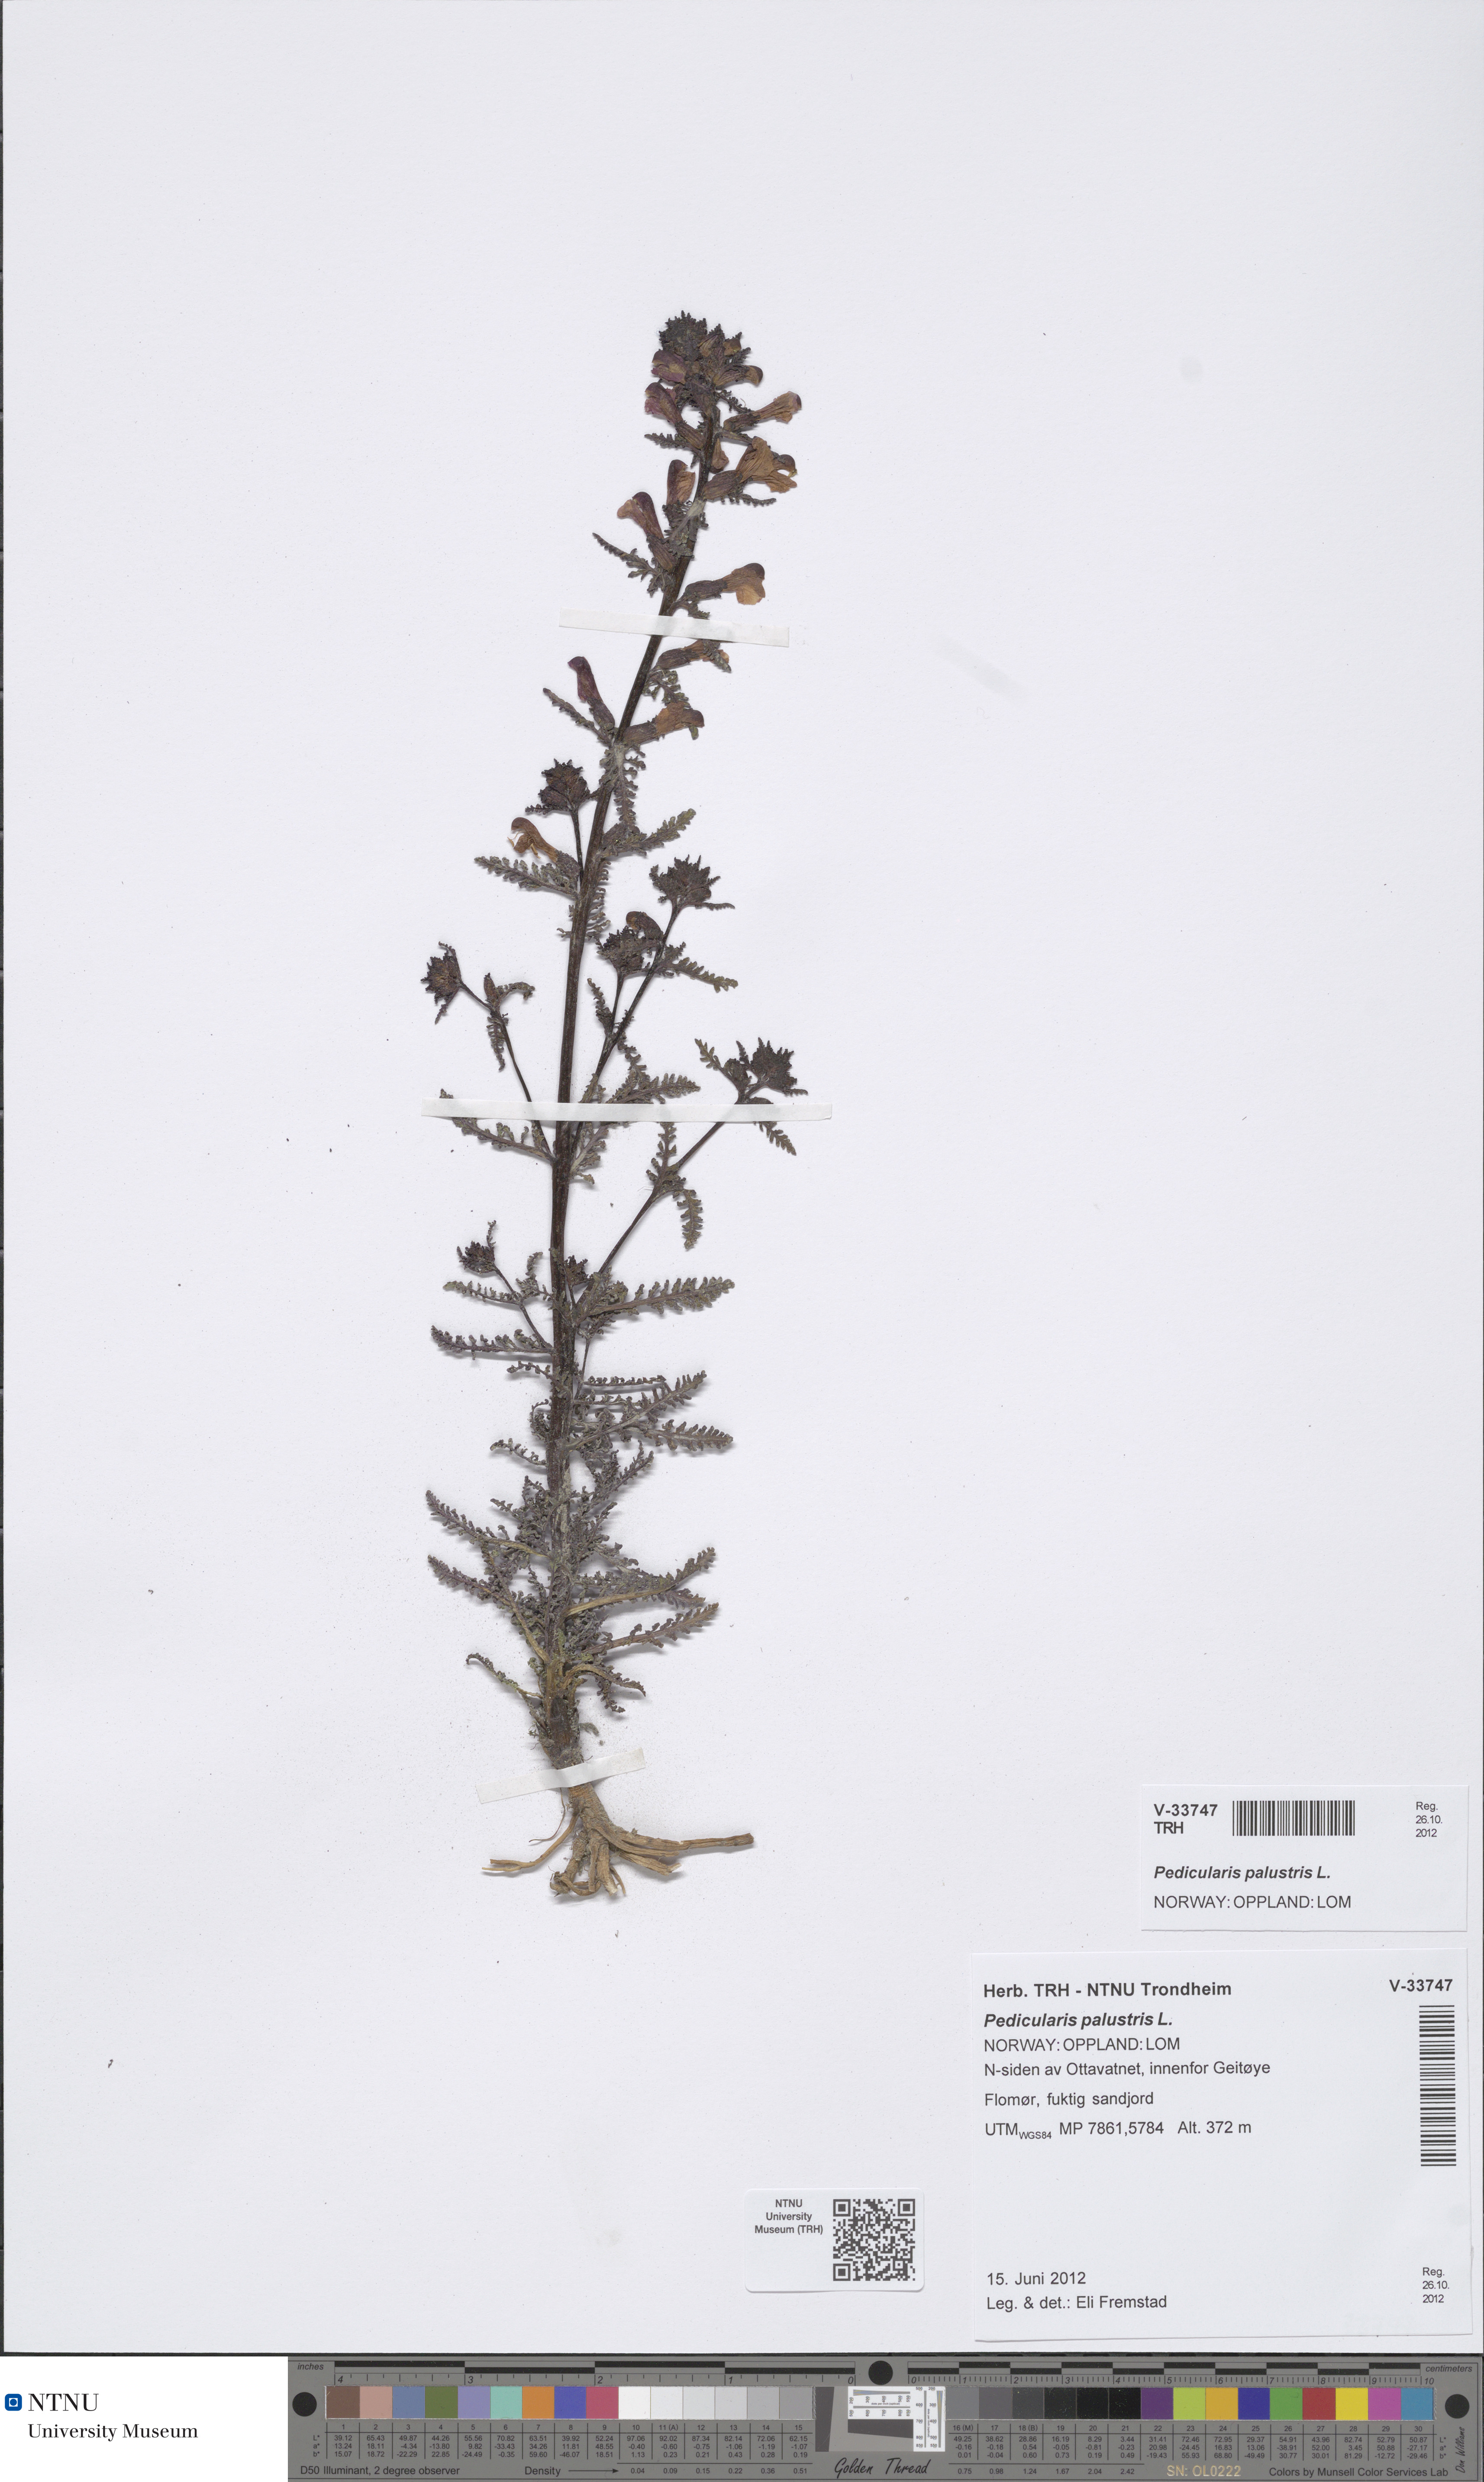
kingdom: Plantae
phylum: Tracheophyta
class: Magnoliopsida
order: Lamiales
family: Orobanchaceae
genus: Pedicularis
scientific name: Pedicularis palustris
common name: Marsh lousewort
